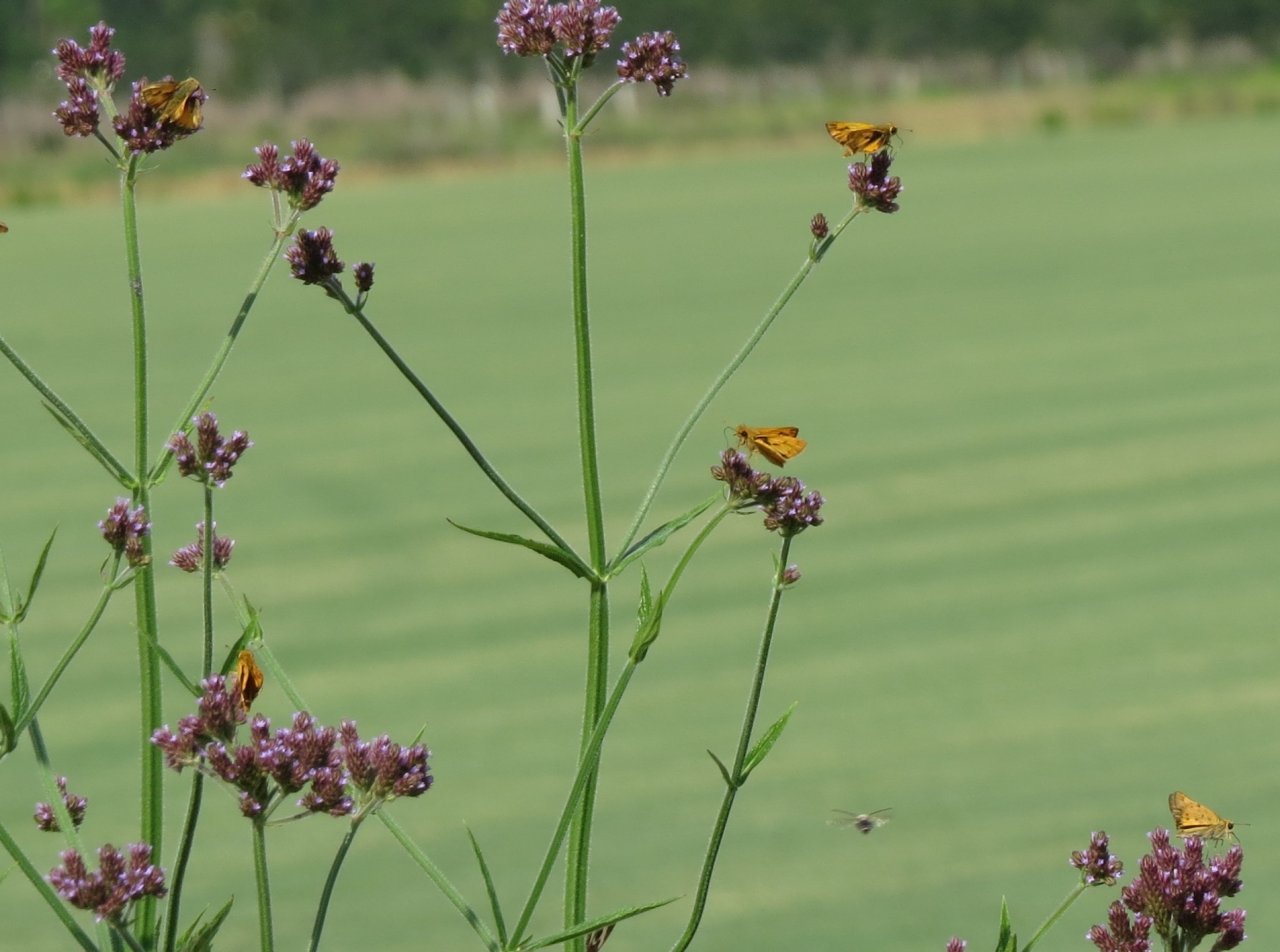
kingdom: Animalia
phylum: Arthropoda
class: Insecta
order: Lepidoptera
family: Hesperiidae
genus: Hylephila
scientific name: Hylephila phyleus
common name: Fiery Skipper
